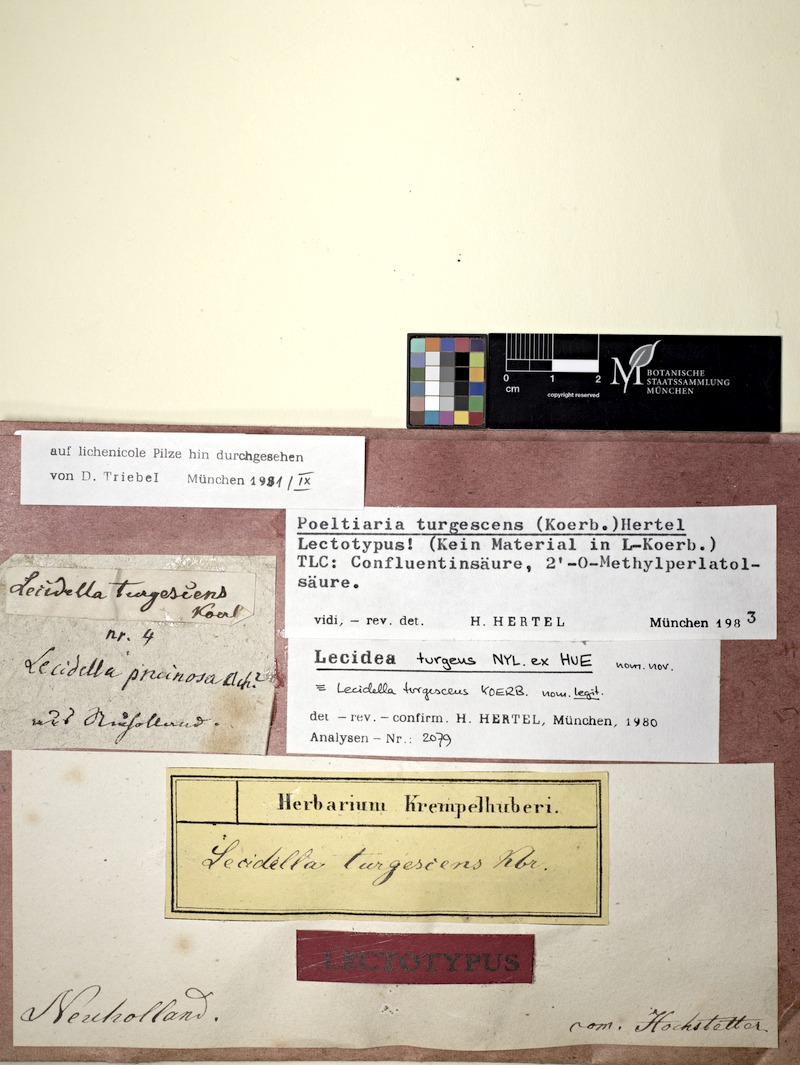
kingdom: Fungi
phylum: Ascomycota
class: Lecanoromycetes
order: Lecideales
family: Lecideaceae
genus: Poeltiaria
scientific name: Poeltiaria turgescens
